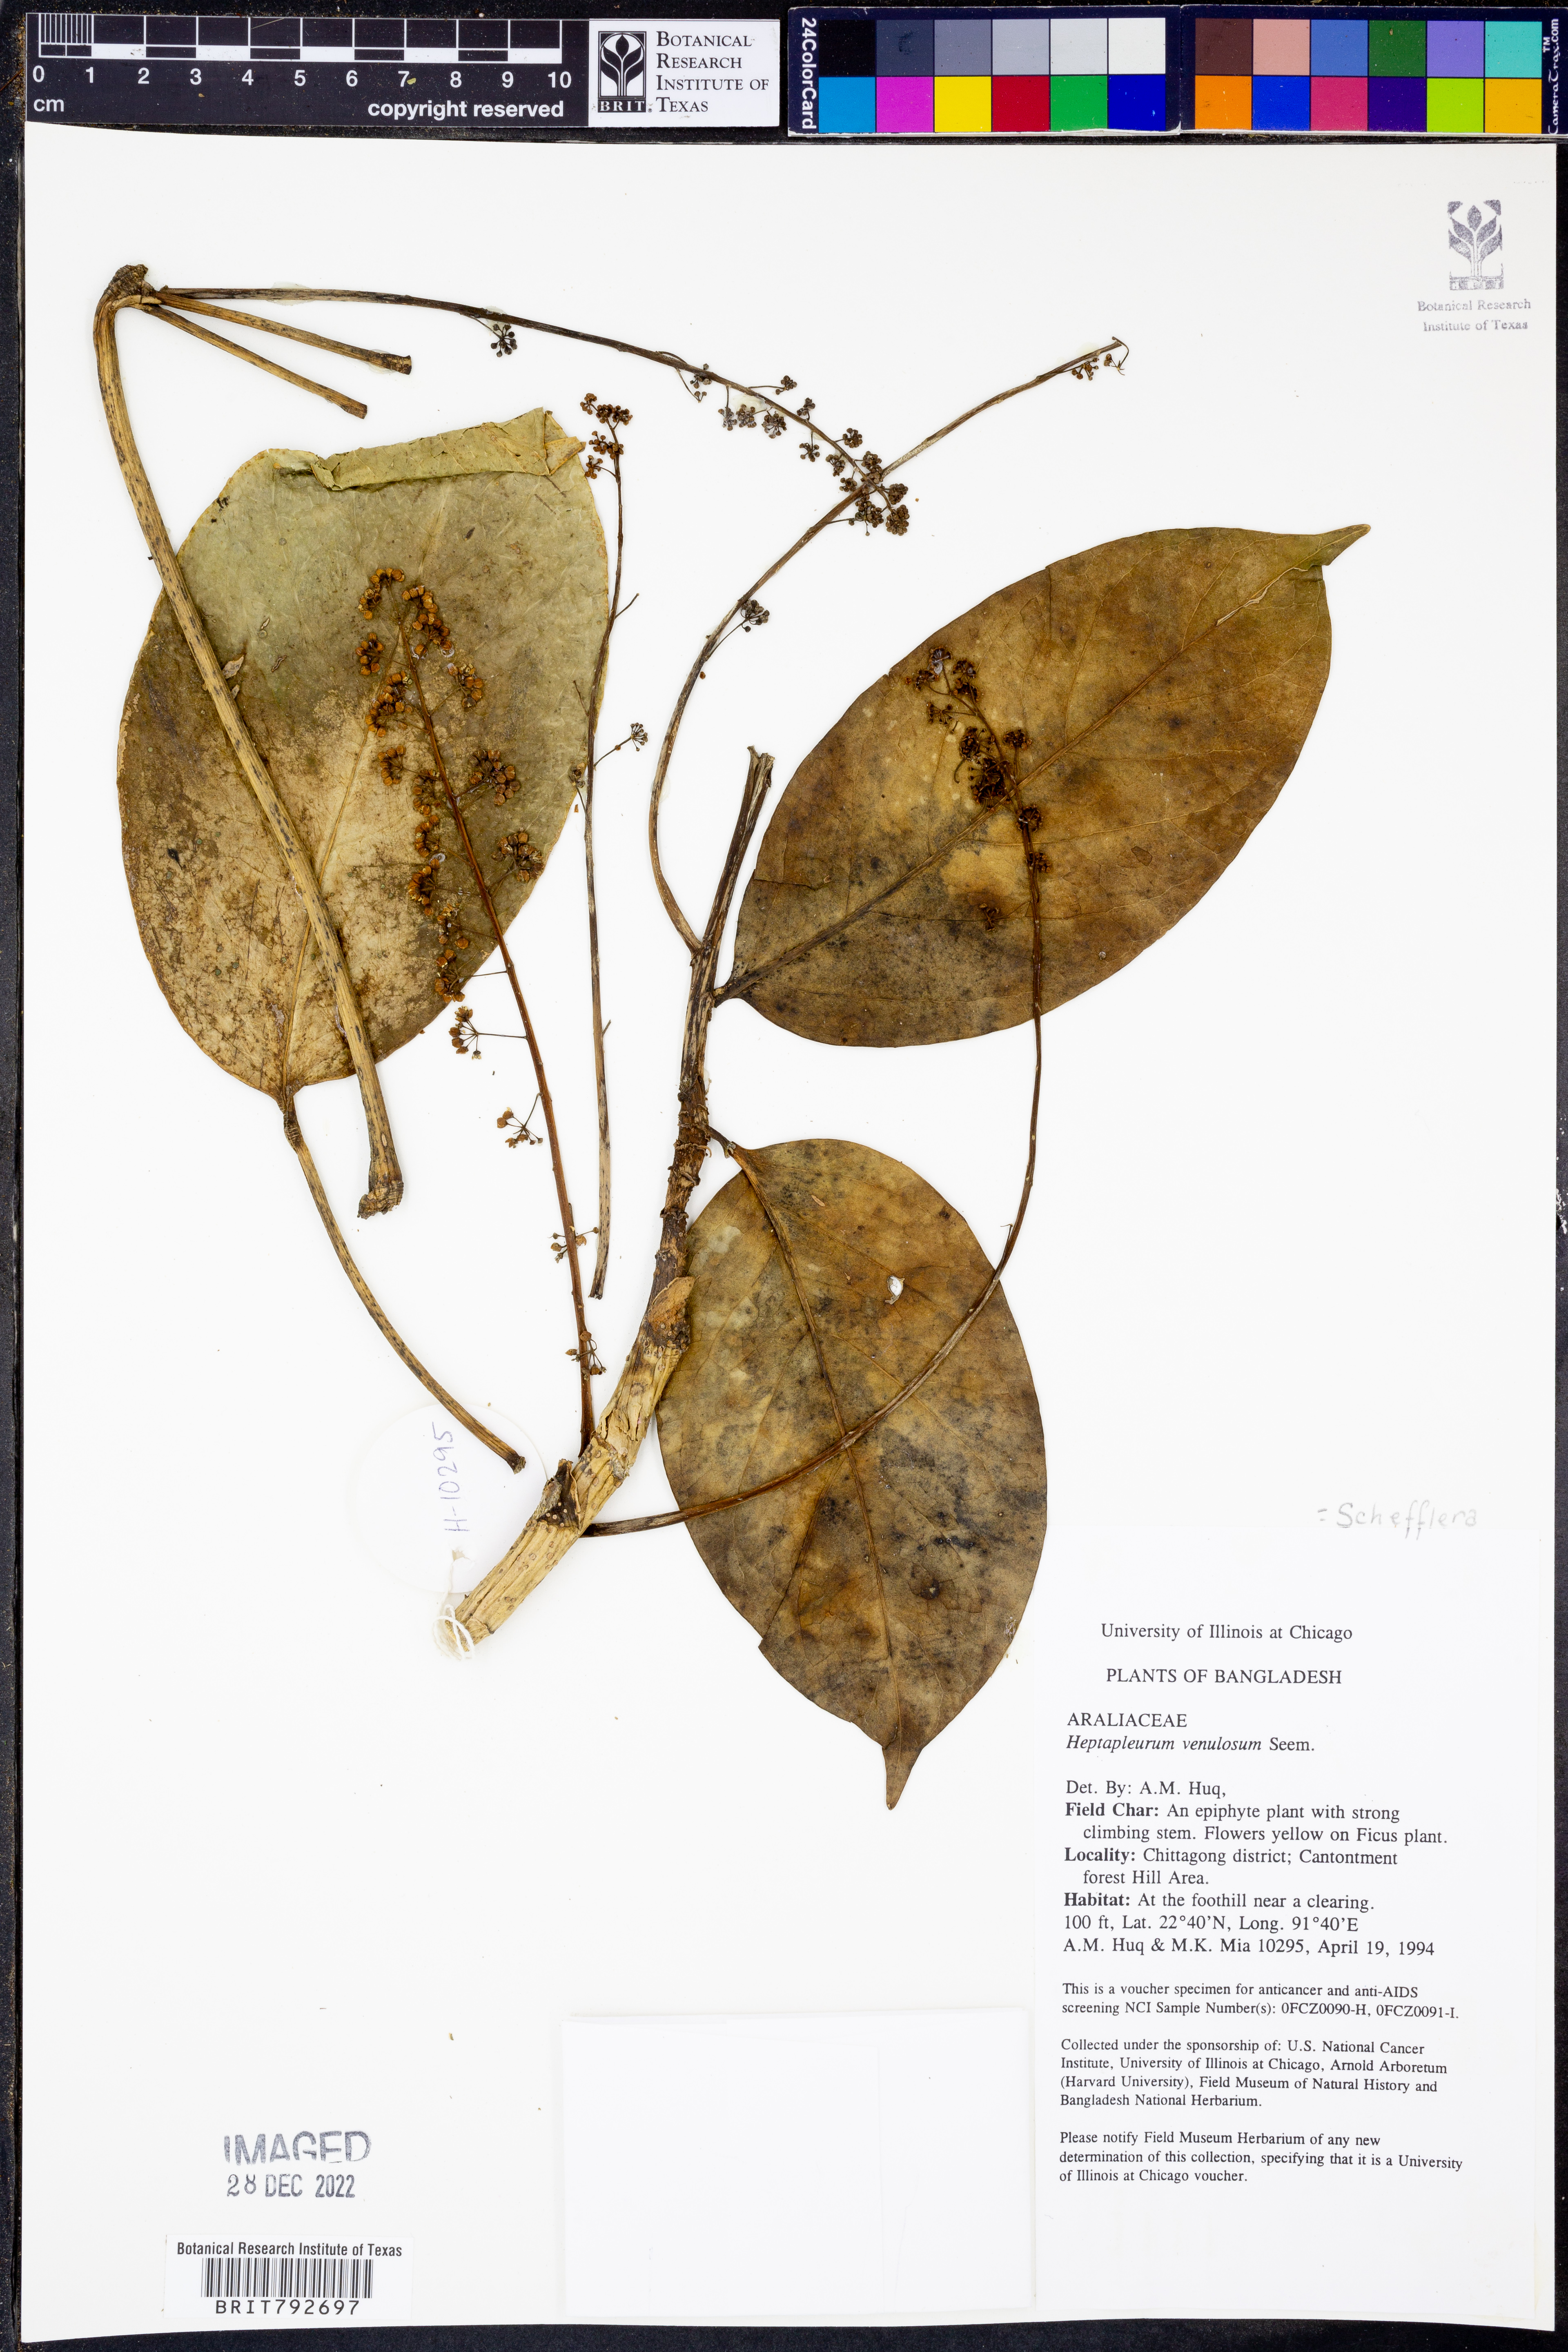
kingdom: Plantae
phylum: Tracheophyta
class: Magnoliopsida
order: Apiales
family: Araliaceae
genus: Heptapleurum
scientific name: Heptapleurum venulosum
